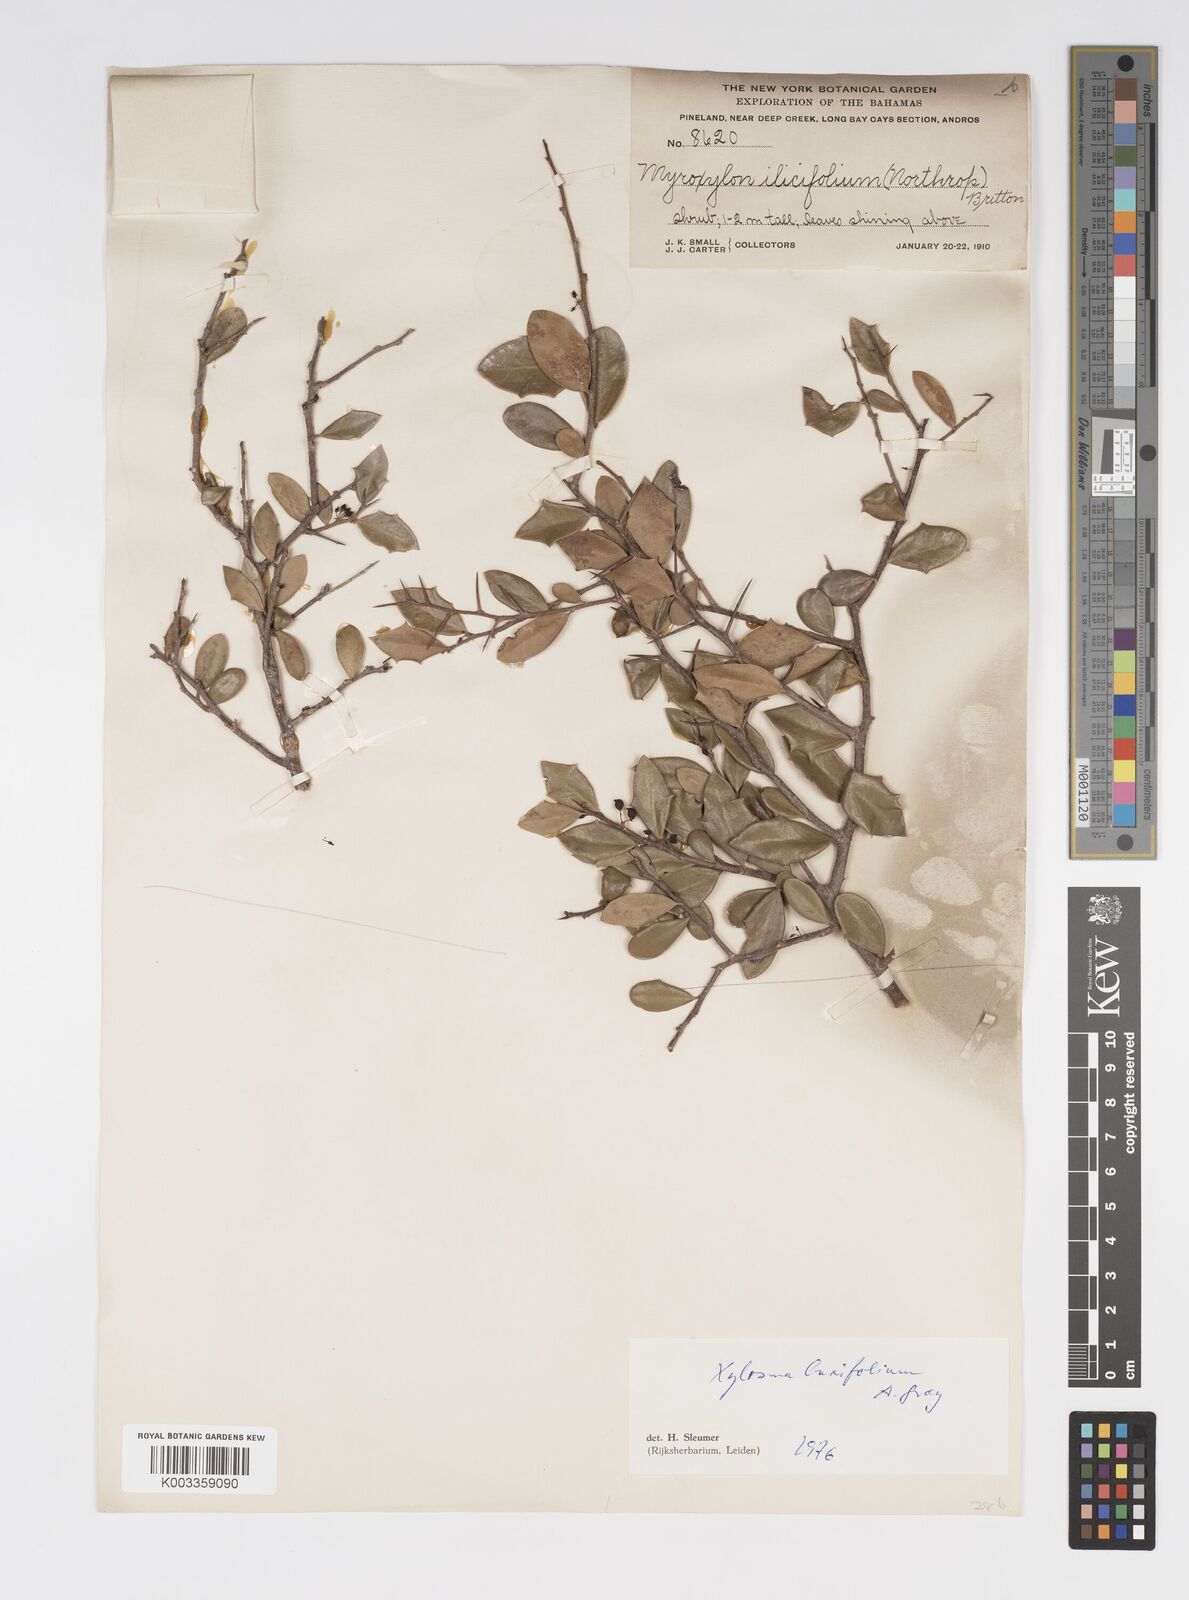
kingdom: Plantae
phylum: Tracheophyta
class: Magnoliopsida
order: Malpighiales
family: Salicaceae
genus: Xylosma
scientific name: Xylosma buxifolia
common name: Cockspur
